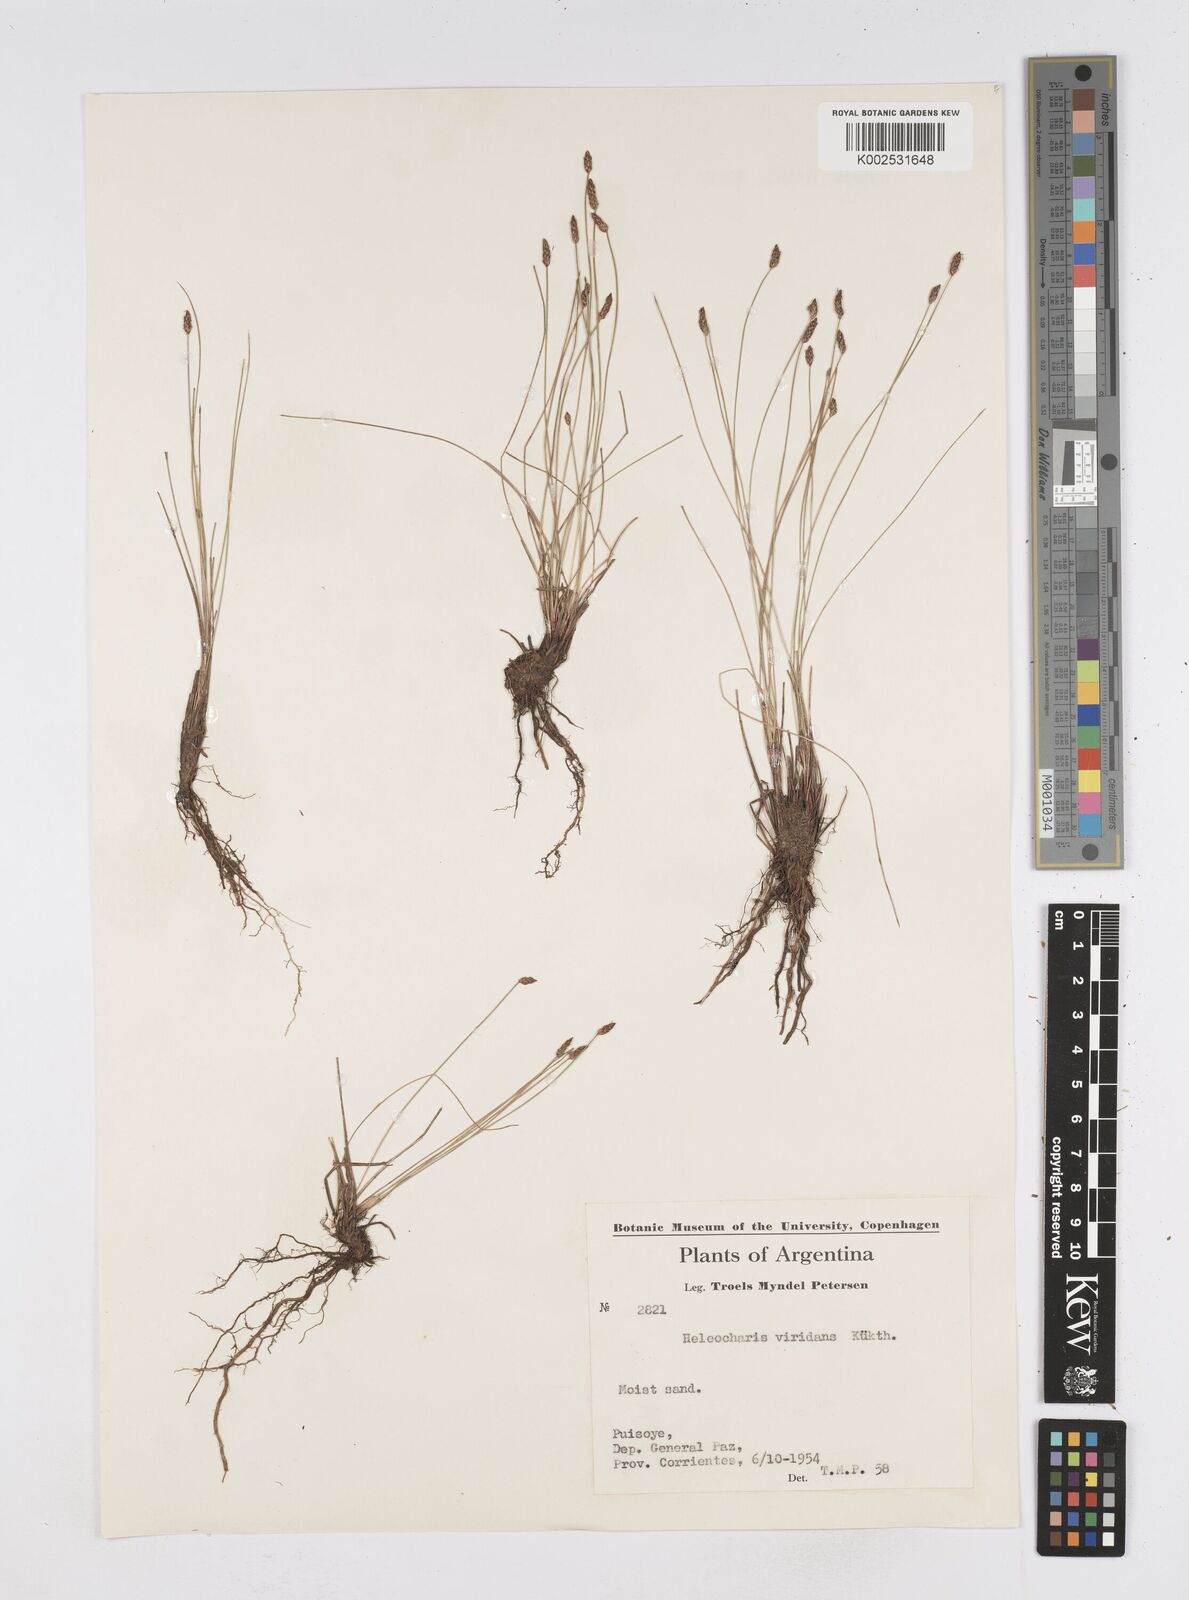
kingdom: Plantae
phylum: Tracheophyta
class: Liliopsida
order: Poales
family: Cyperaceae
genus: Eleocharis
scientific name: Eleocharis viridans
